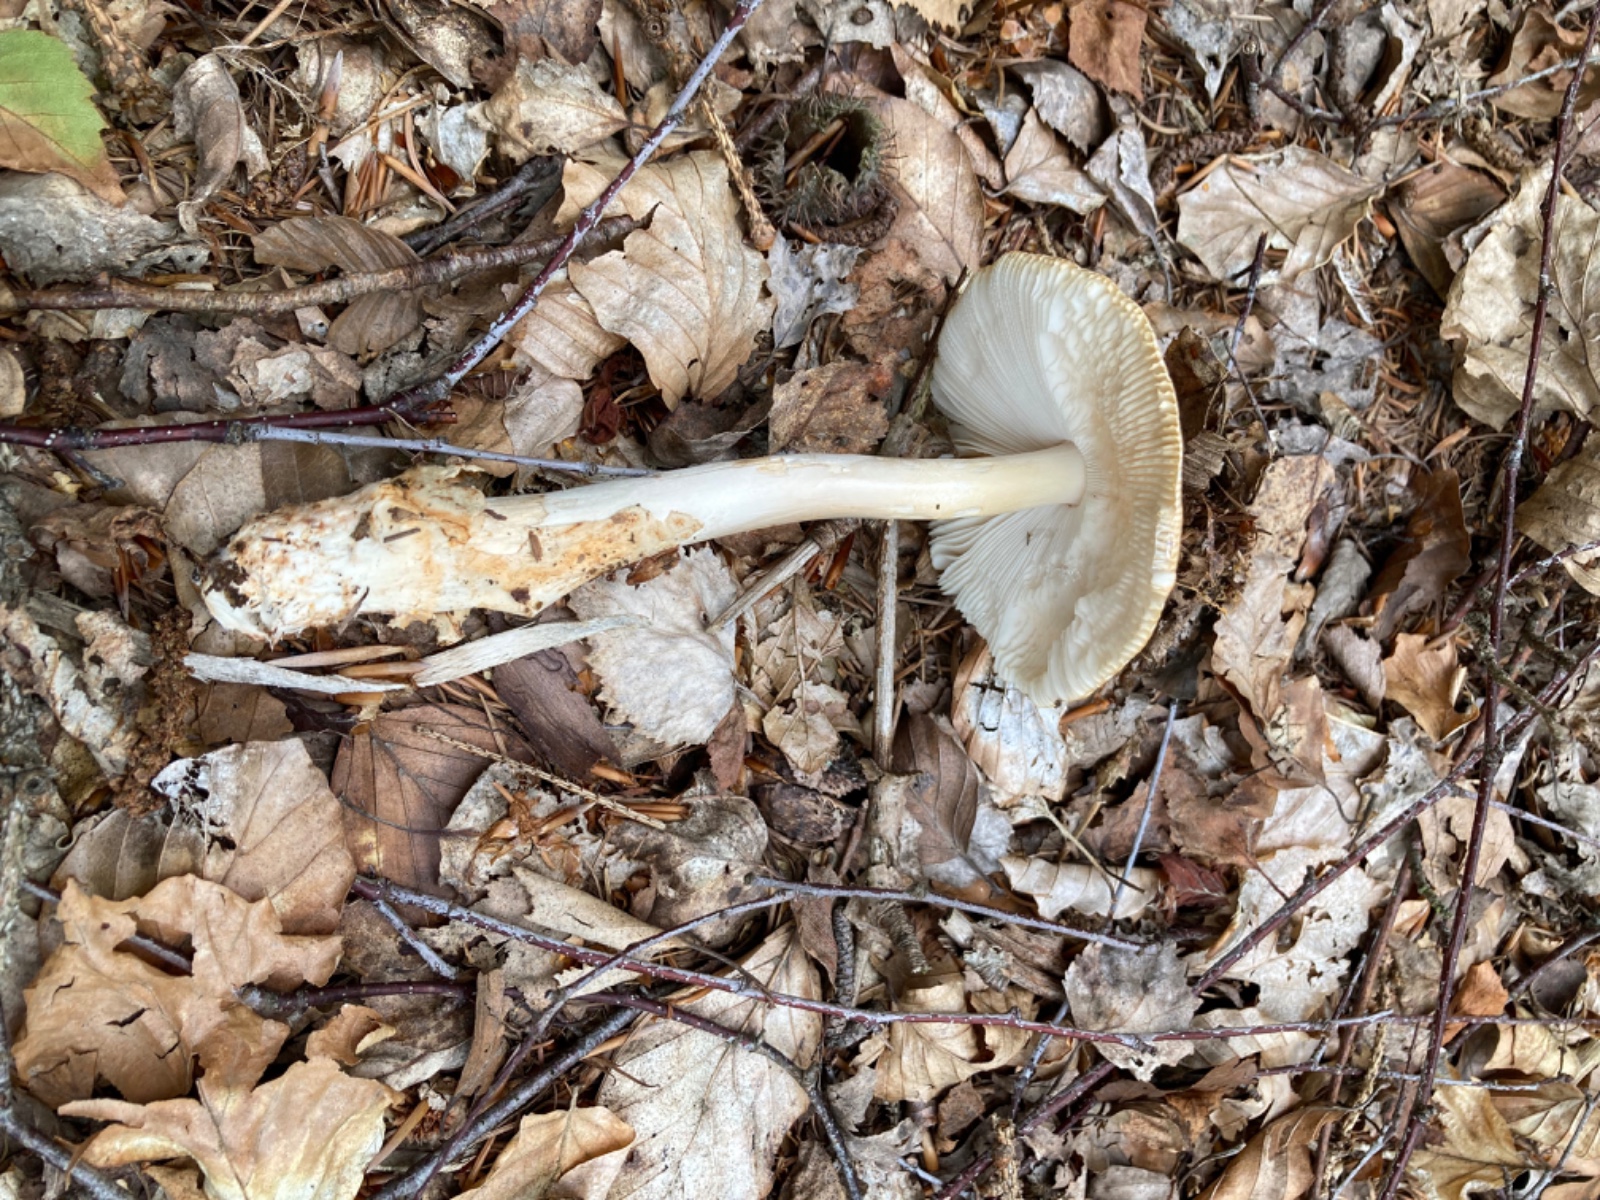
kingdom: Fungi
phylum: Basidiomycota
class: Agaricomycetes
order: Agaricales
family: Amanitaceae
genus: Amanita
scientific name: Amanita fulva
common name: brun kam-fluesvamp
